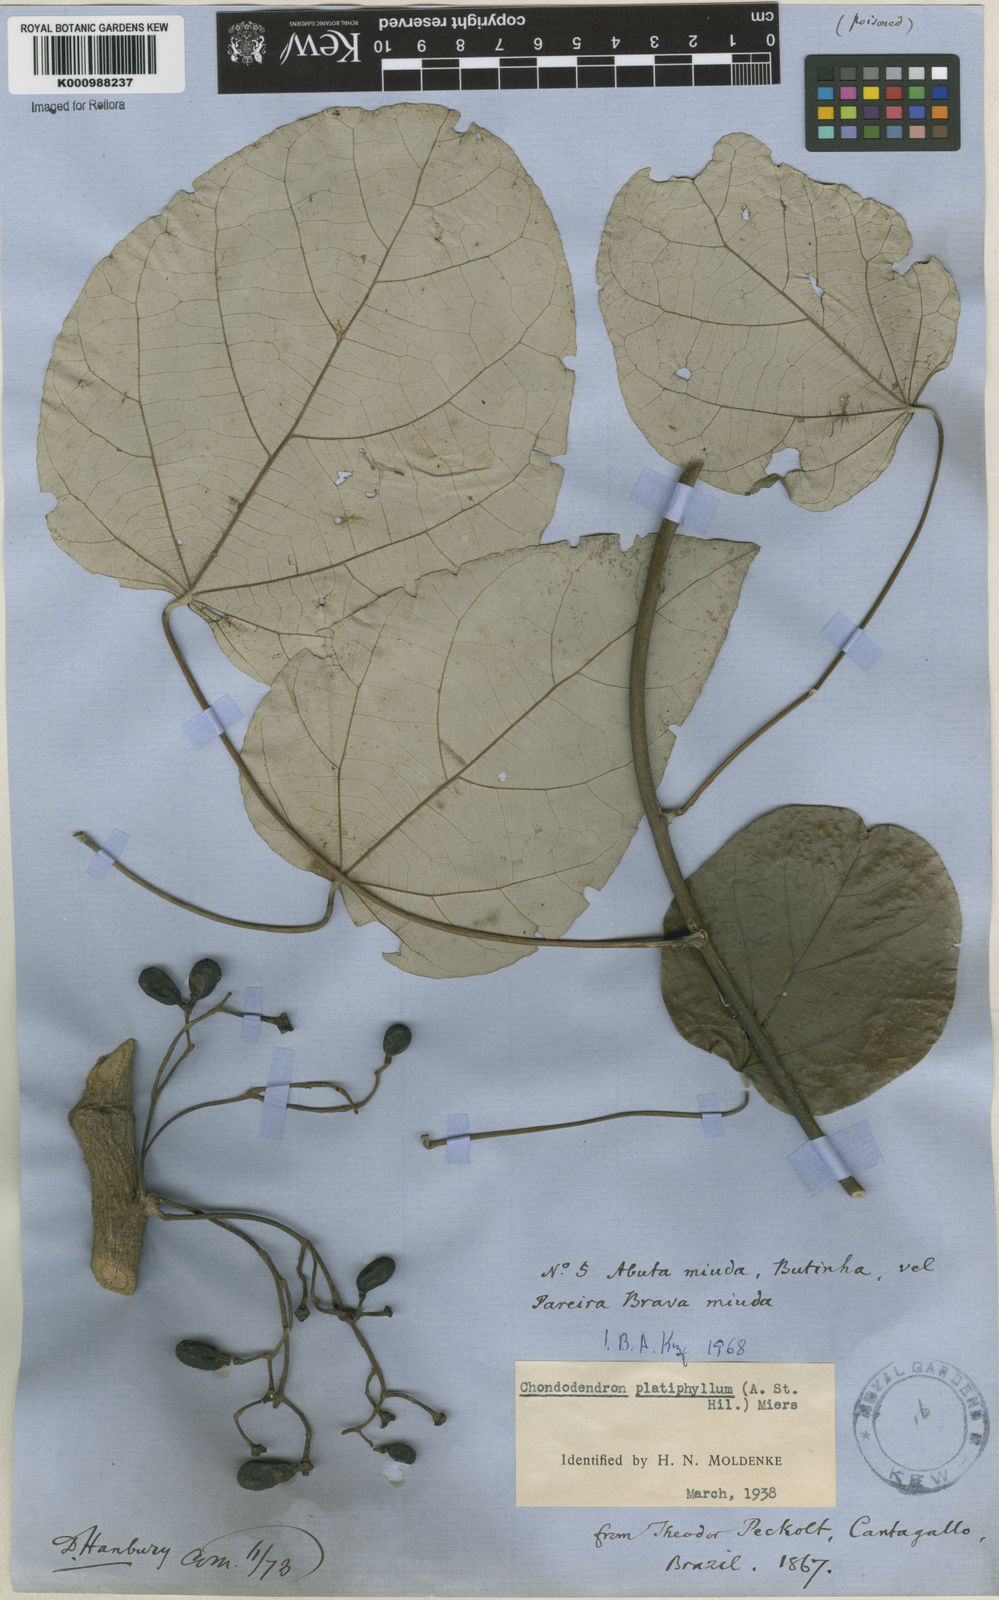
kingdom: Plantae
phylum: Tracheophyta
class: Magnoliopsida
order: Ranunculales
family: Menispermaceae
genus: Chondrodendron
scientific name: Chondrodendron platyphyllum
